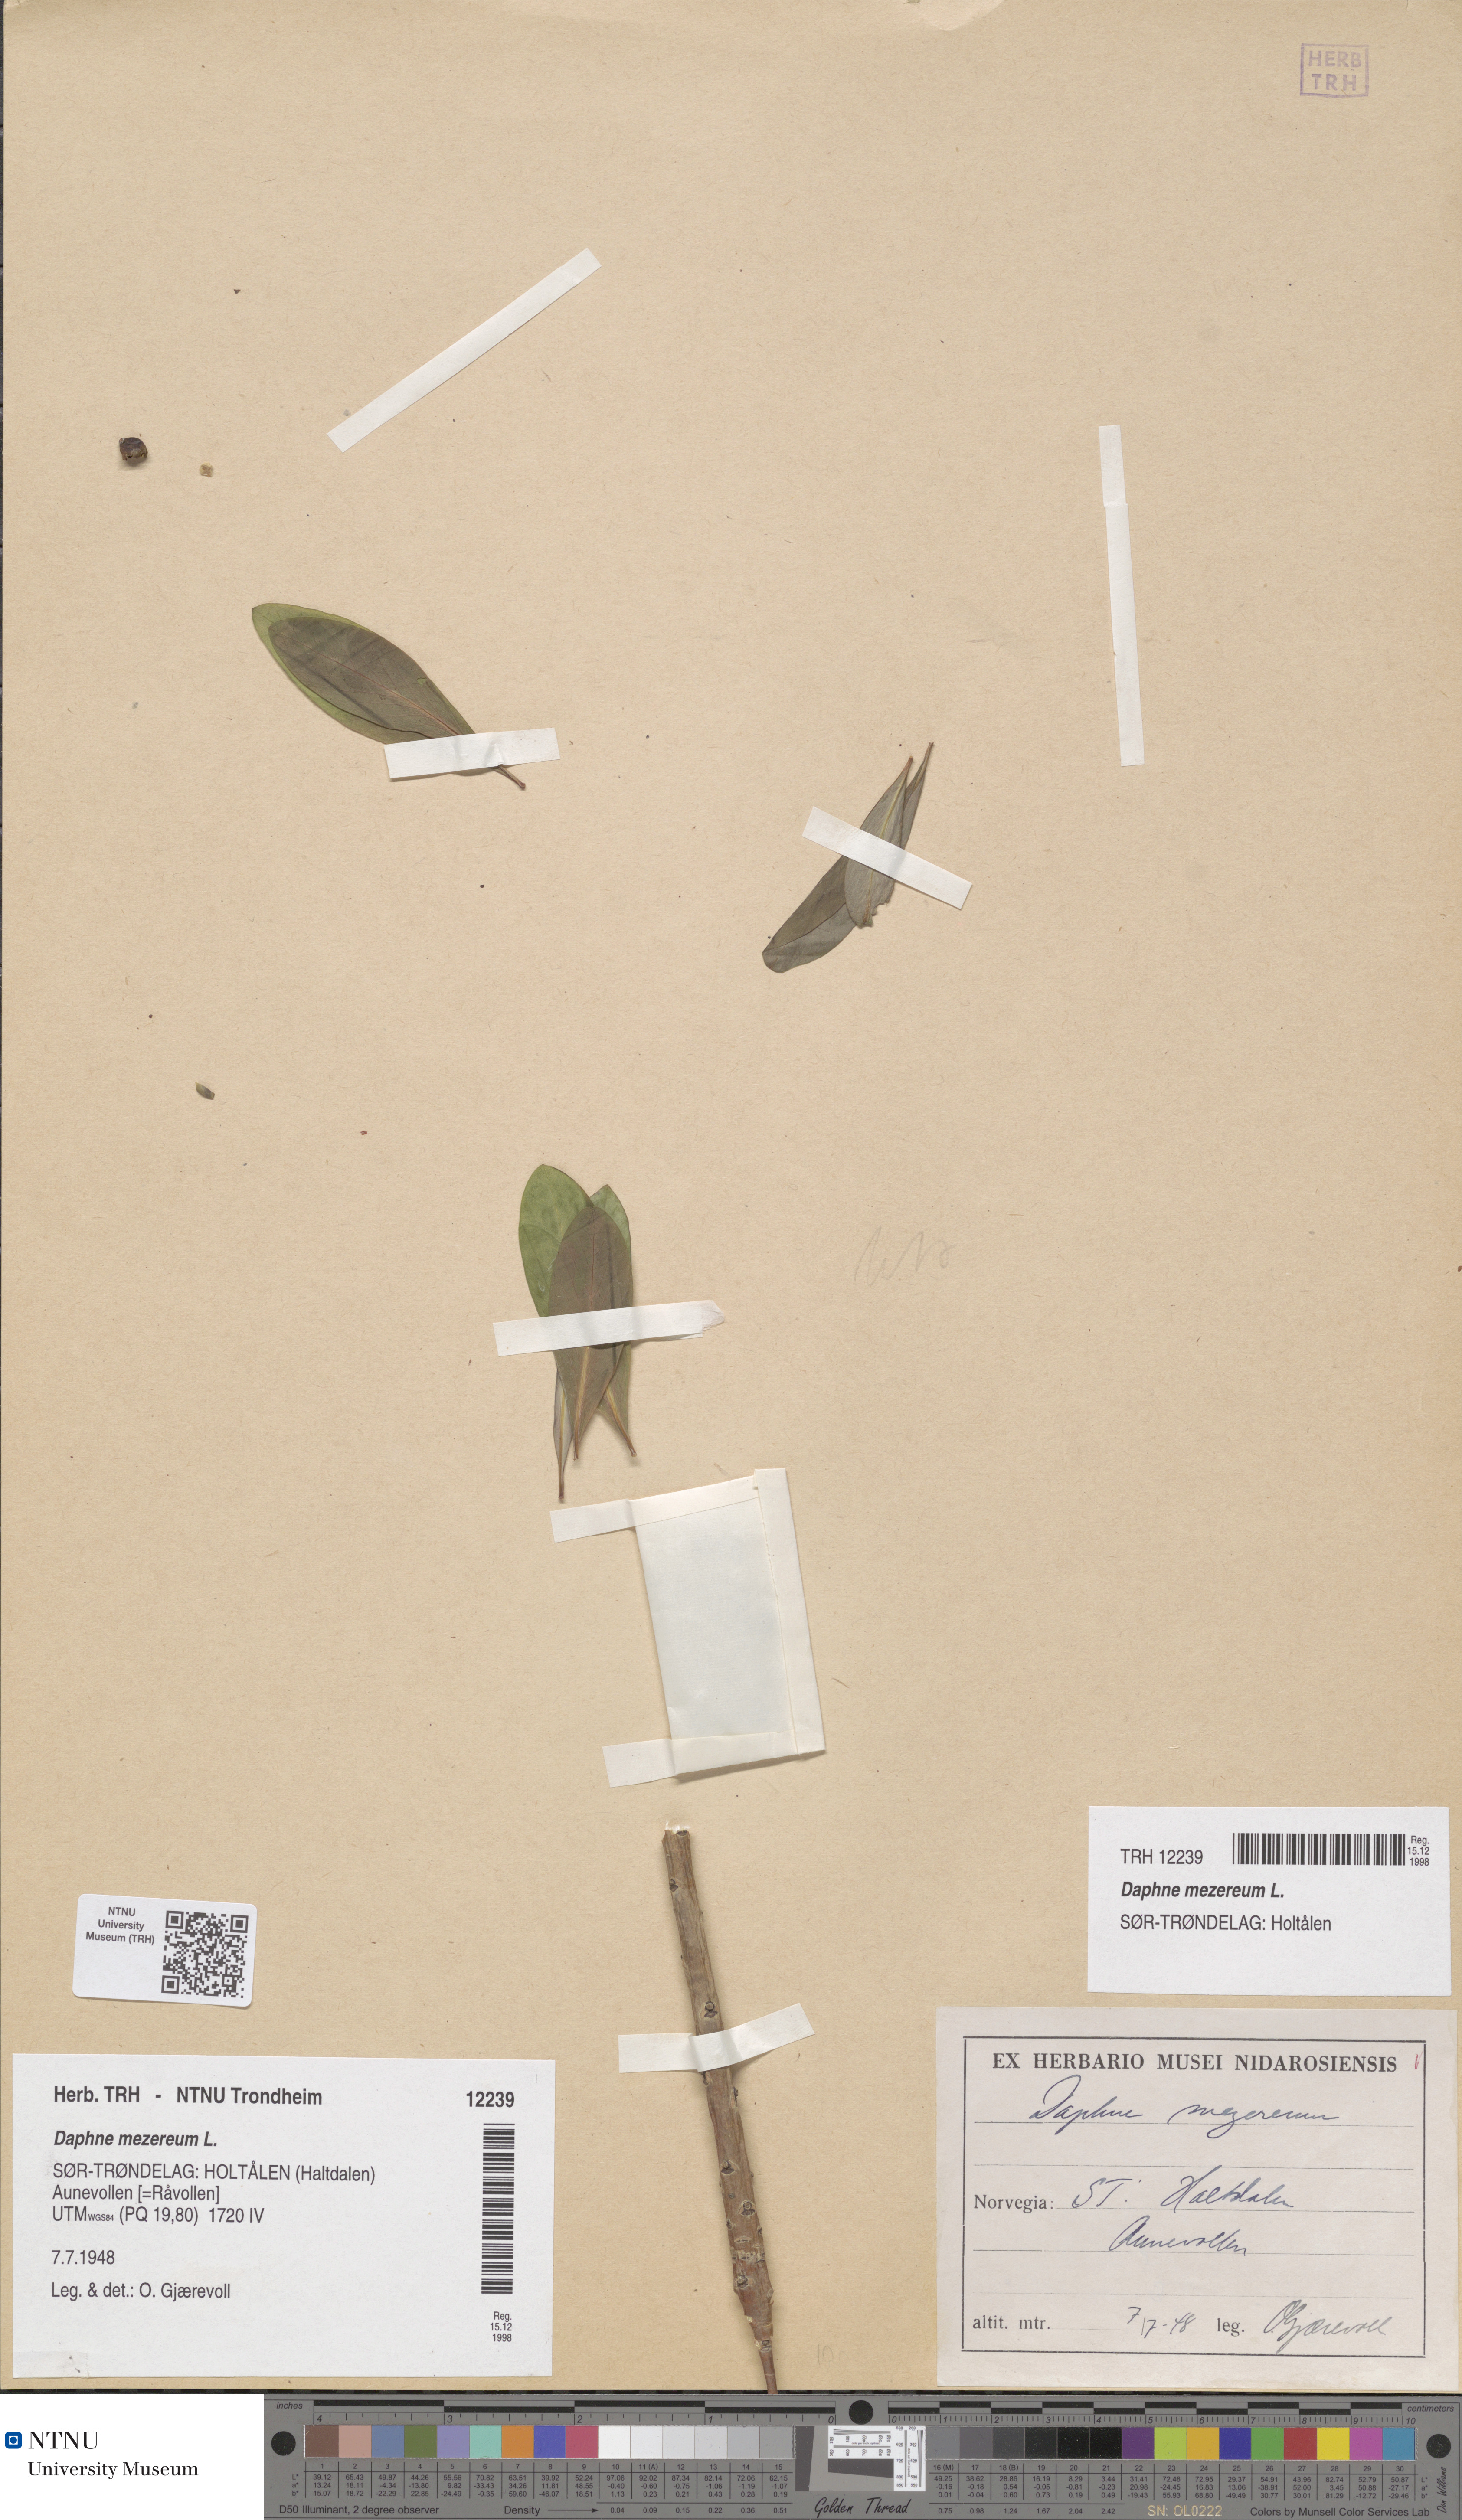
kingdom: Plantae
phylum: Tracheophyta
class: Magnoliopsida
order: Malvales
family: Thymelaeaceae
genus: Daphne
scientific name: Daphne mezereum
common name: Mezereon
